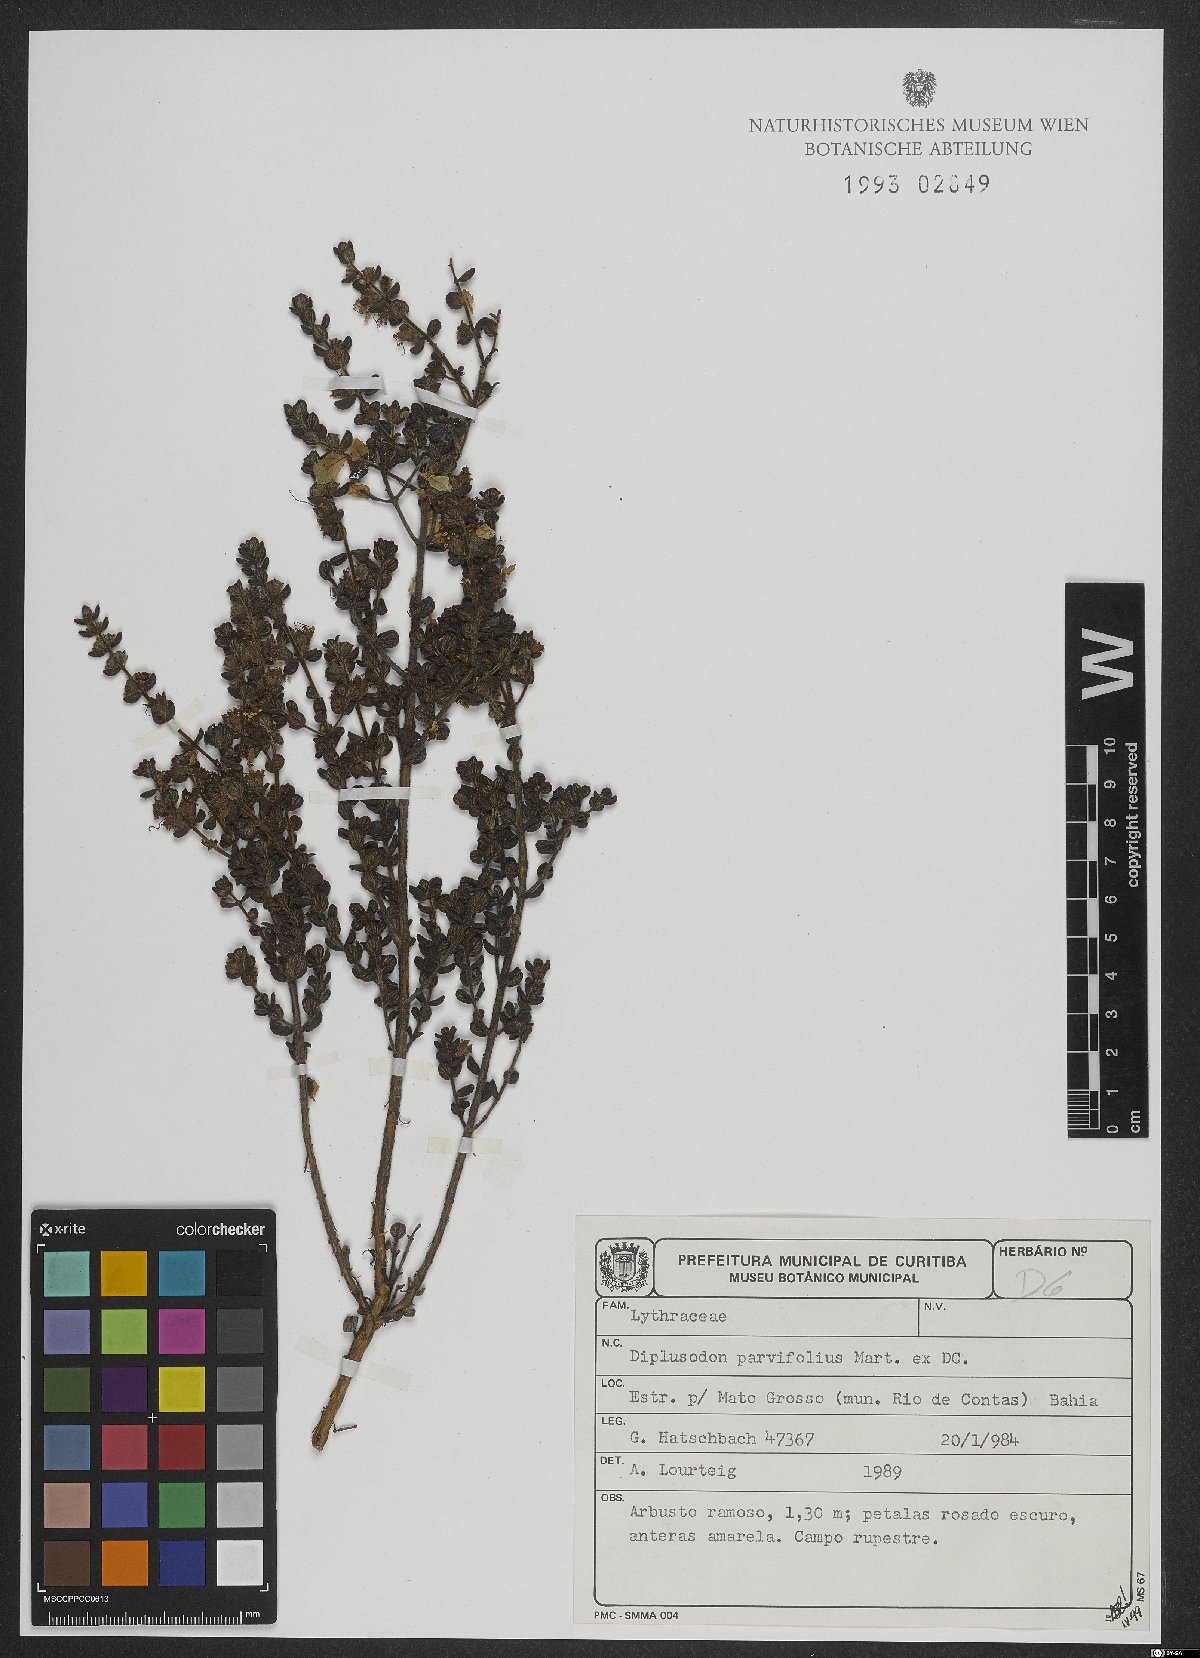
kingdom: Plantae
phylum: Tracheophyta
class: Magnoliopsida
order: Myrtales
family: Lythraceae
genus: Diplusodon
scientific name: Diplusodon parvifolius
